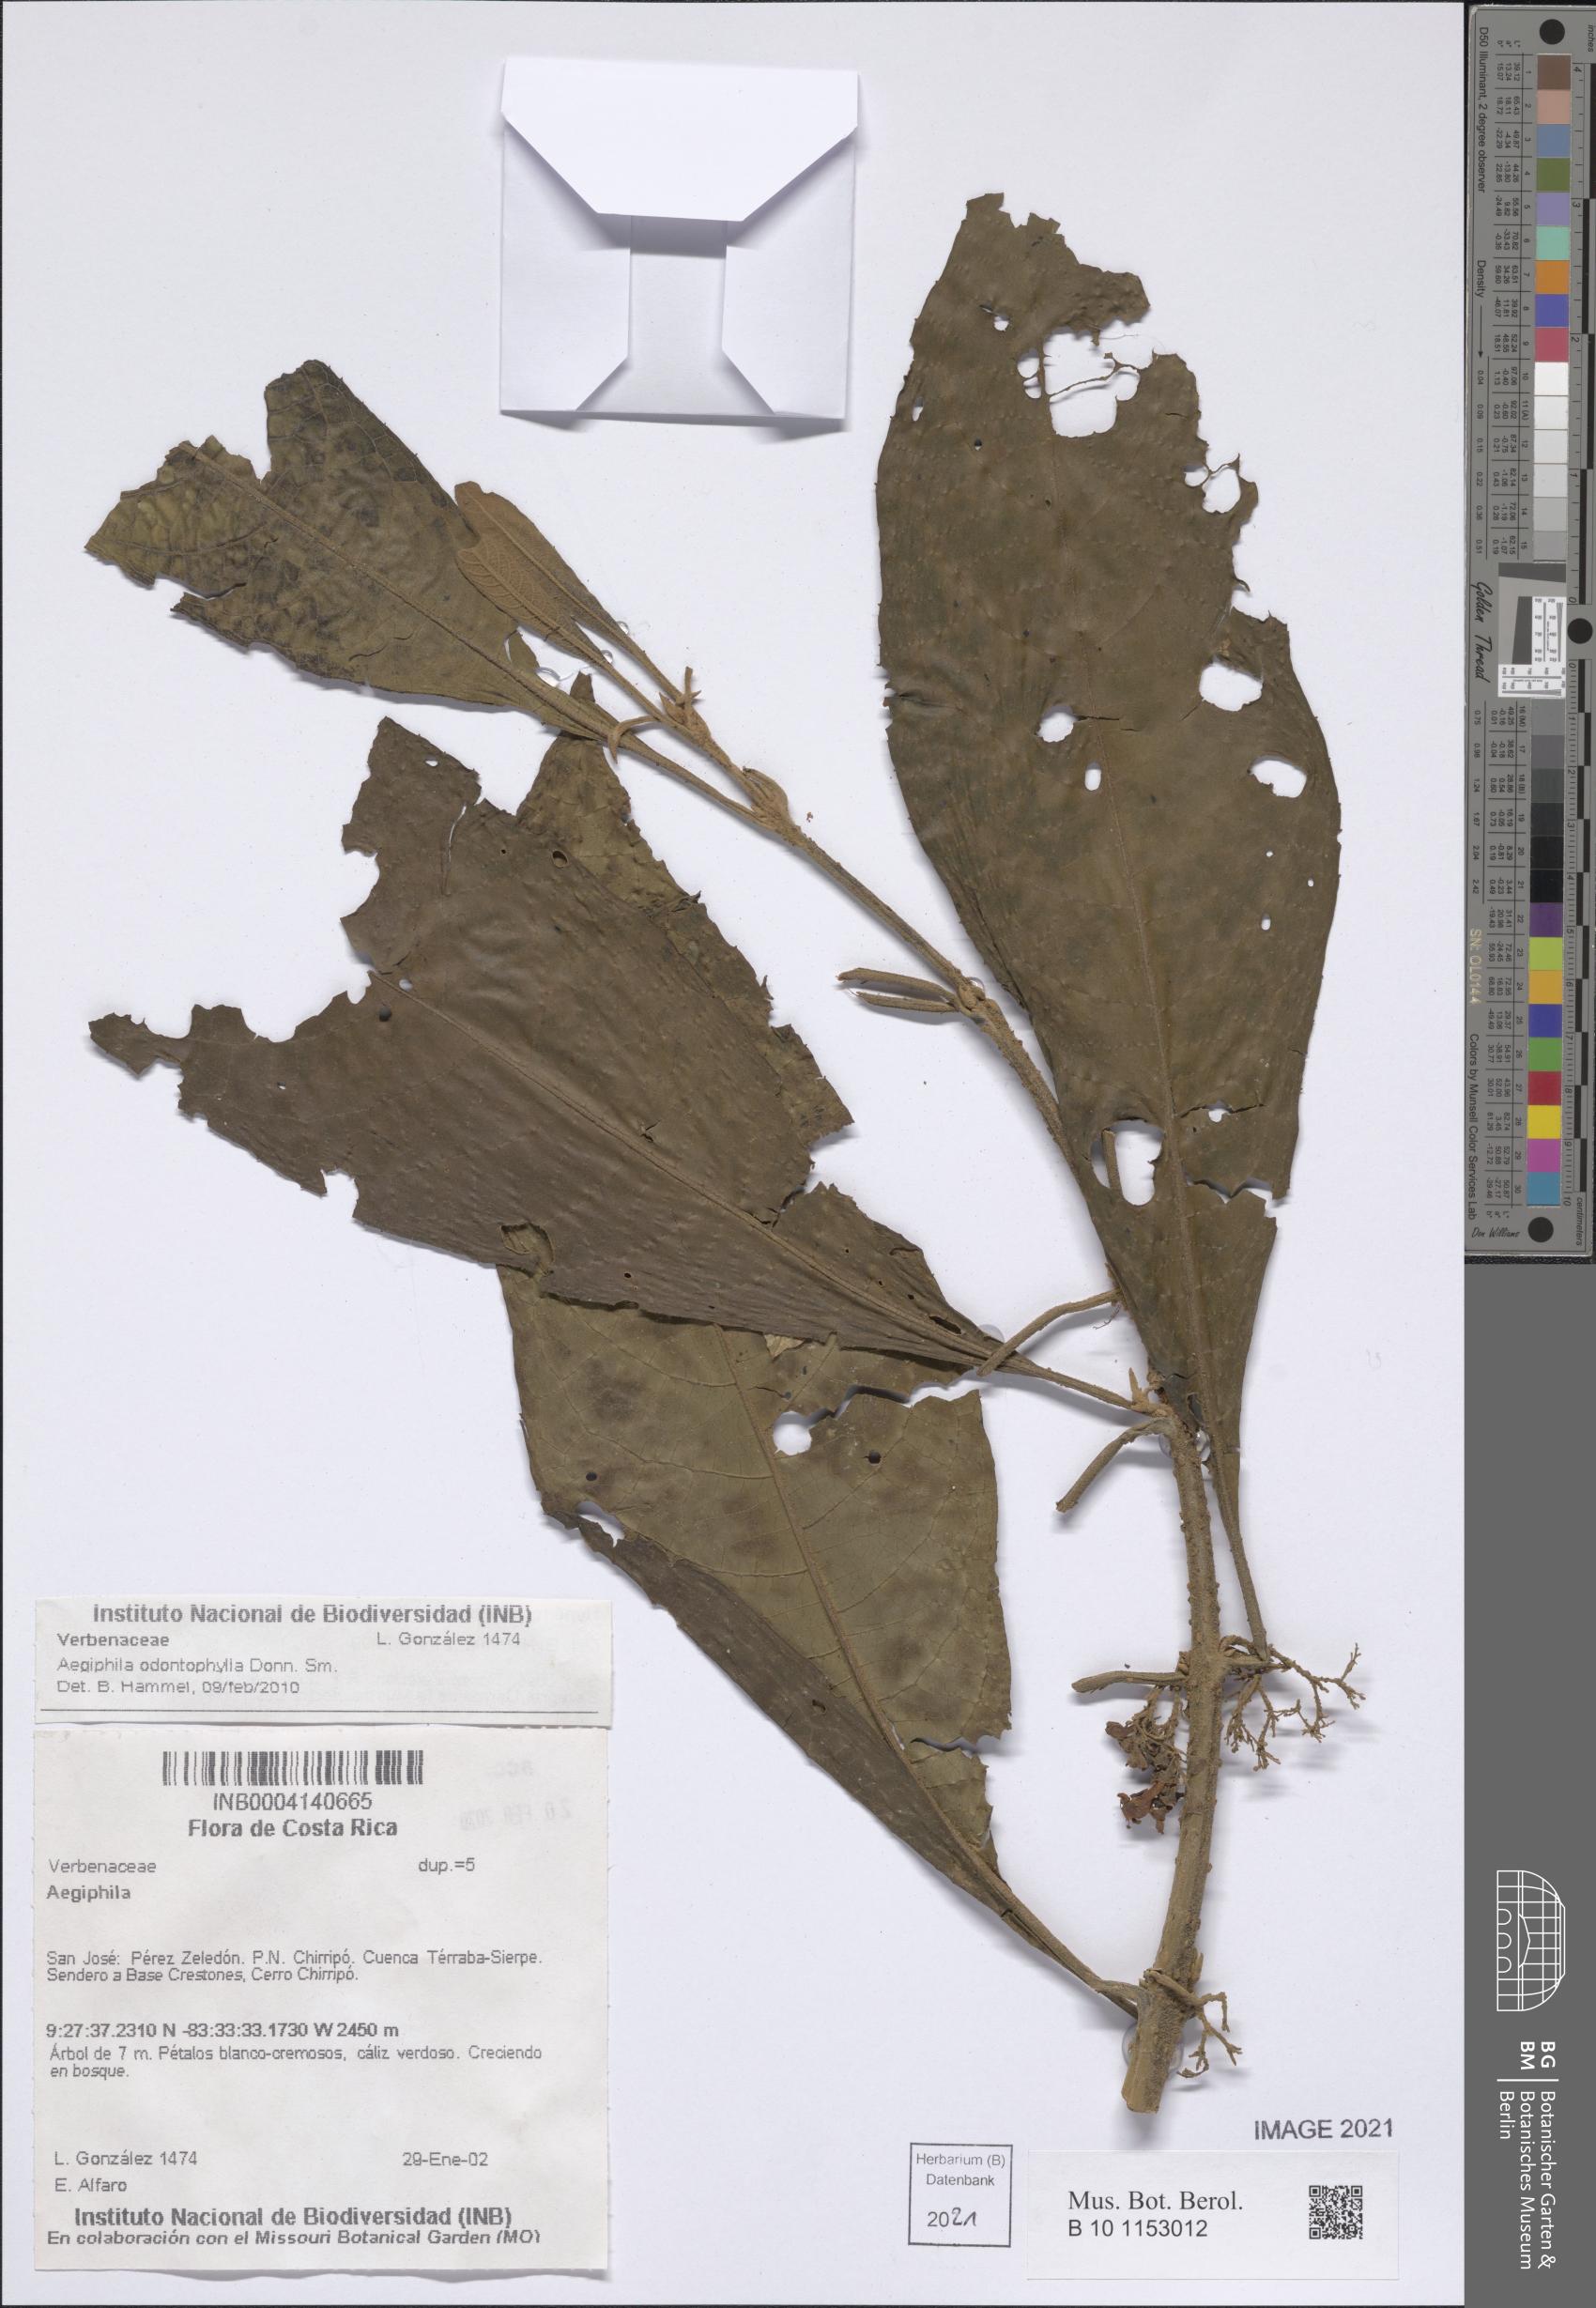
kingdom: Plantae
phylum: Tracheophyta
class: Magnoliopsida
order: Lamiales
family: Lamiaceae
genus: Aegiphila
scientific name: Aegiphila odontophylla
